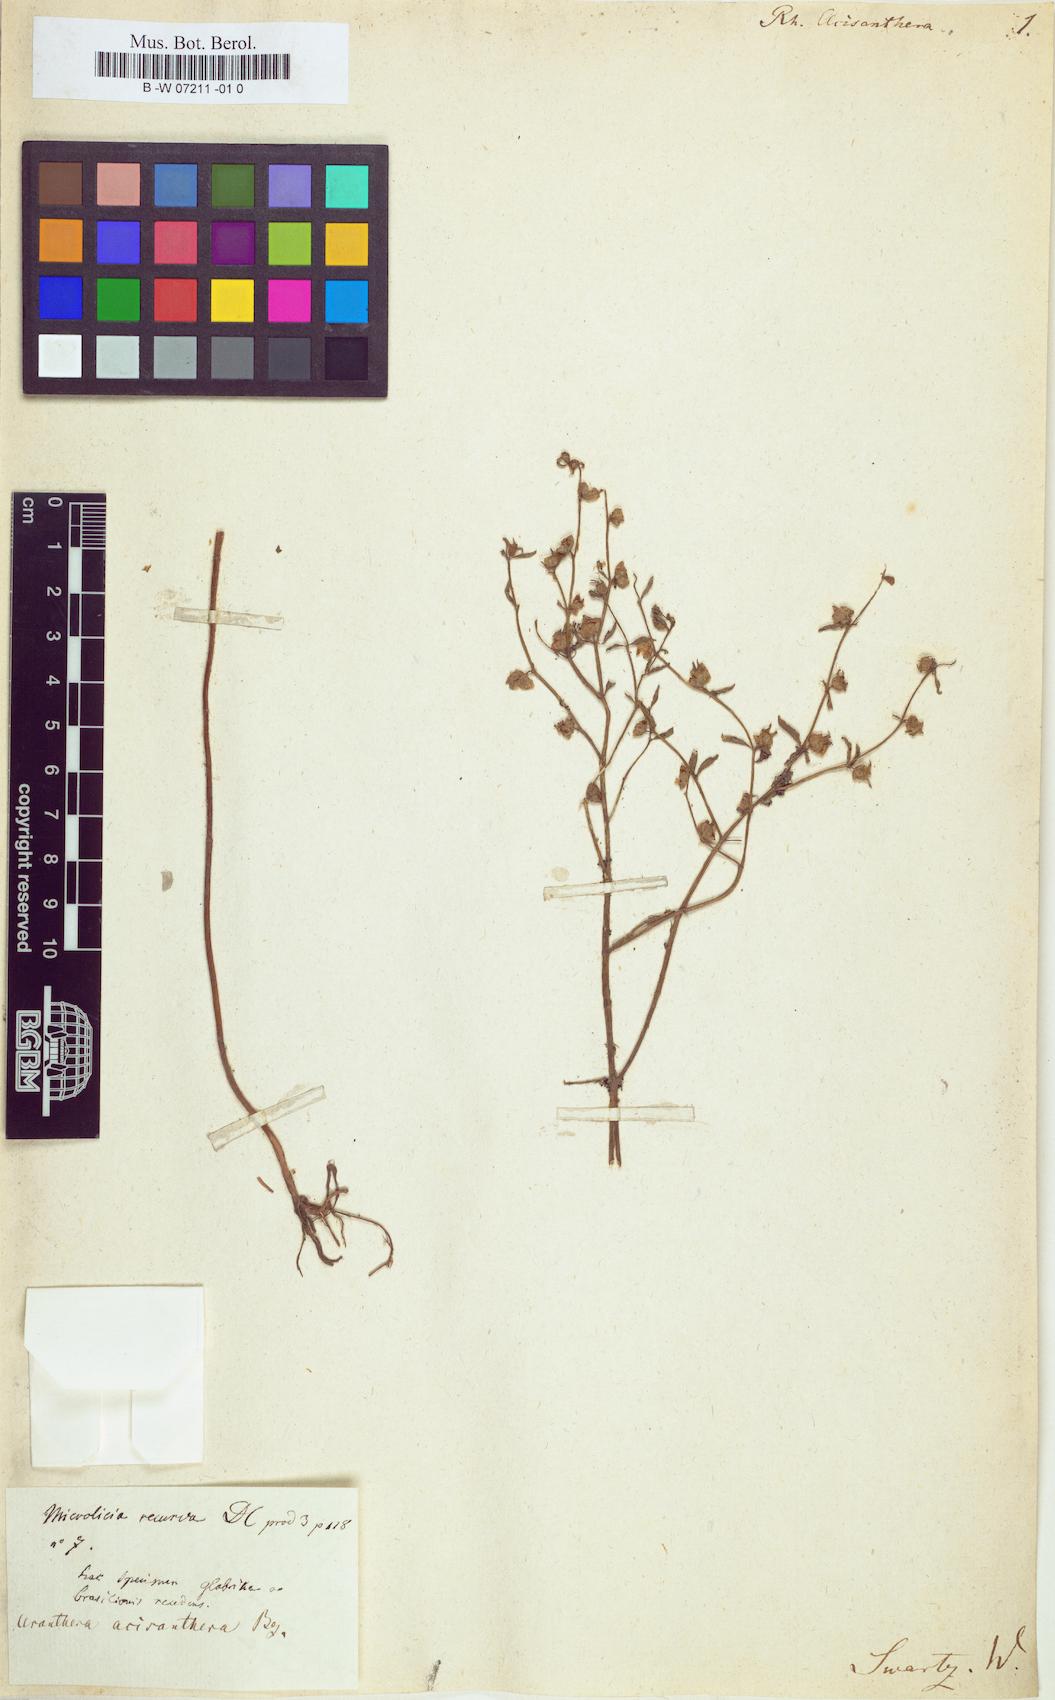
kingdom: Plantae
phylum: Tracheophyta
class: Magnoliopsida
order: Myrtales
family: Melastomataceae
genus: Acisanthera
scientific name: Acisanthera
